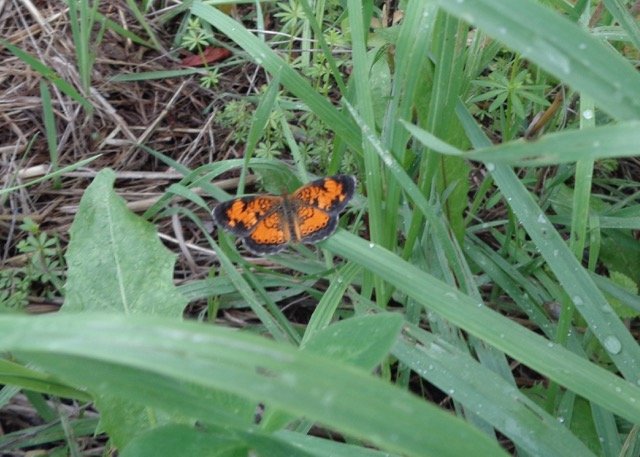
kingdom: Animalia
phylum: Arthropoda
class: Insecta
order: Lepidoptera
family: Nymphalidae
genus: Phyciodes
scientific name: Phyciodes tharos
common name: Pearl Crescent
